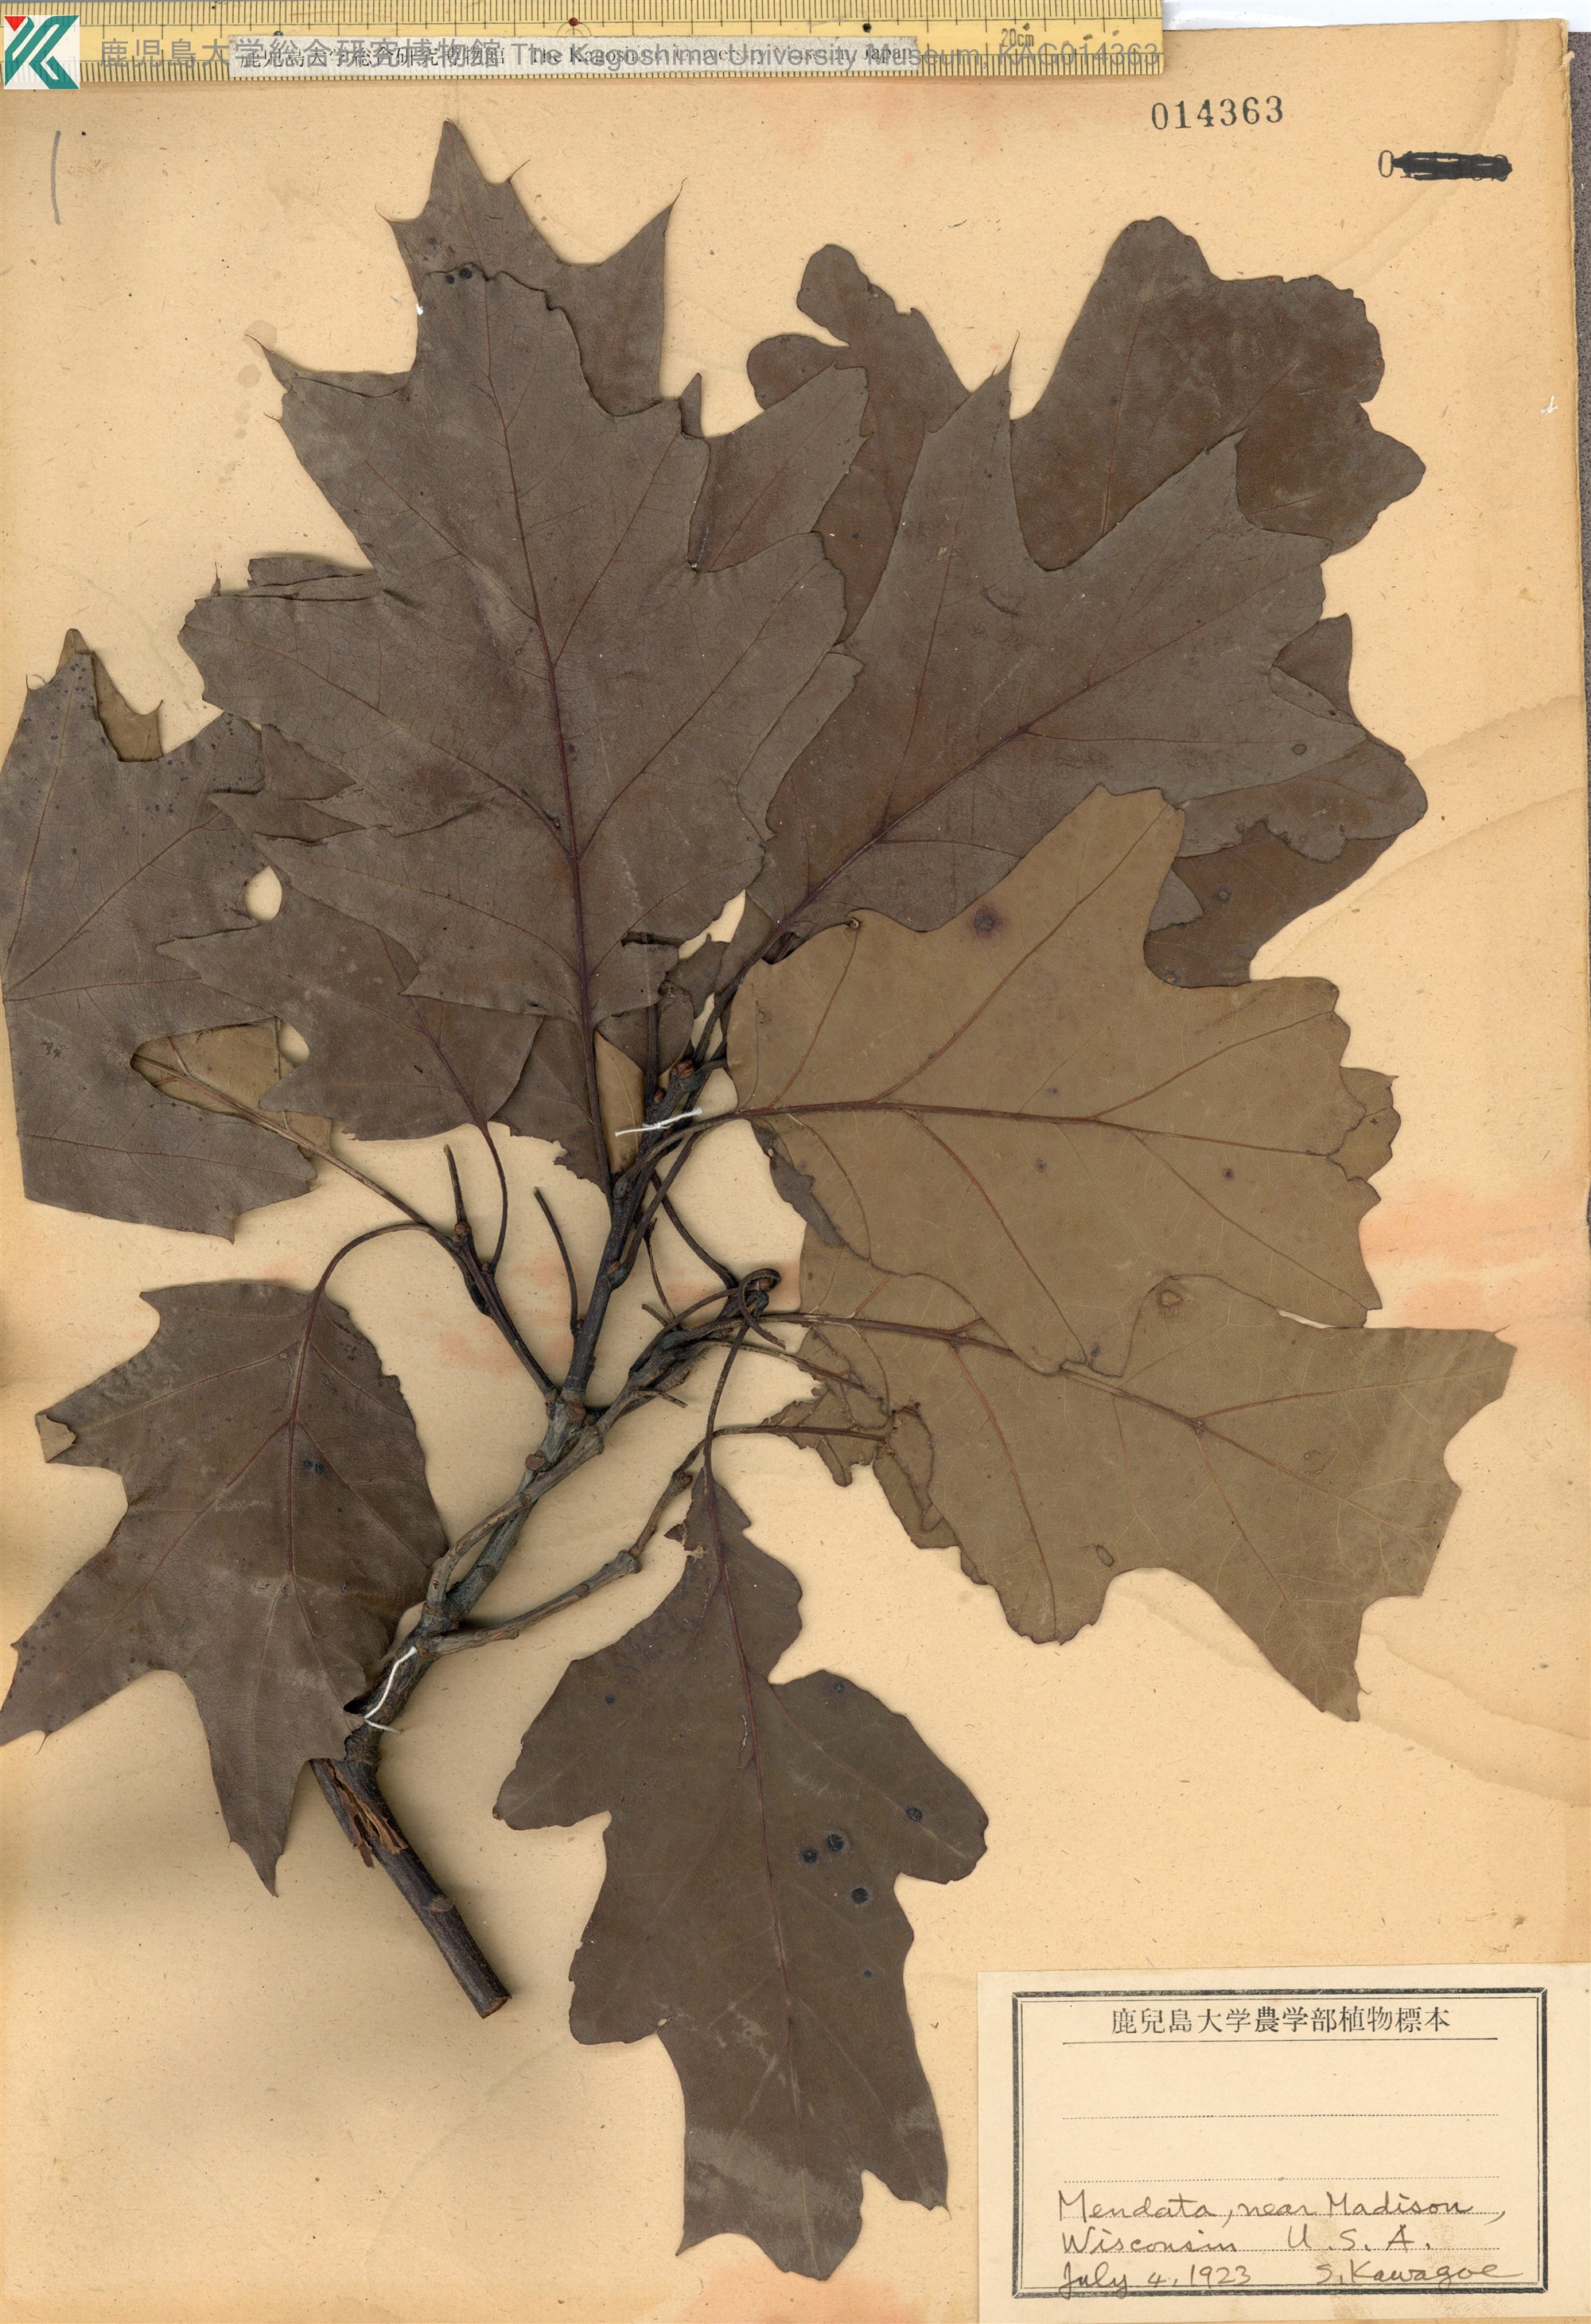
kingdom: Plantae
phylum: Tracheophyta
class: Magnoliopsida
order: Fagales
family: Fagaceae
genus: Quercus
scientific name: Quercus shumardii
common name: Shumard oak
